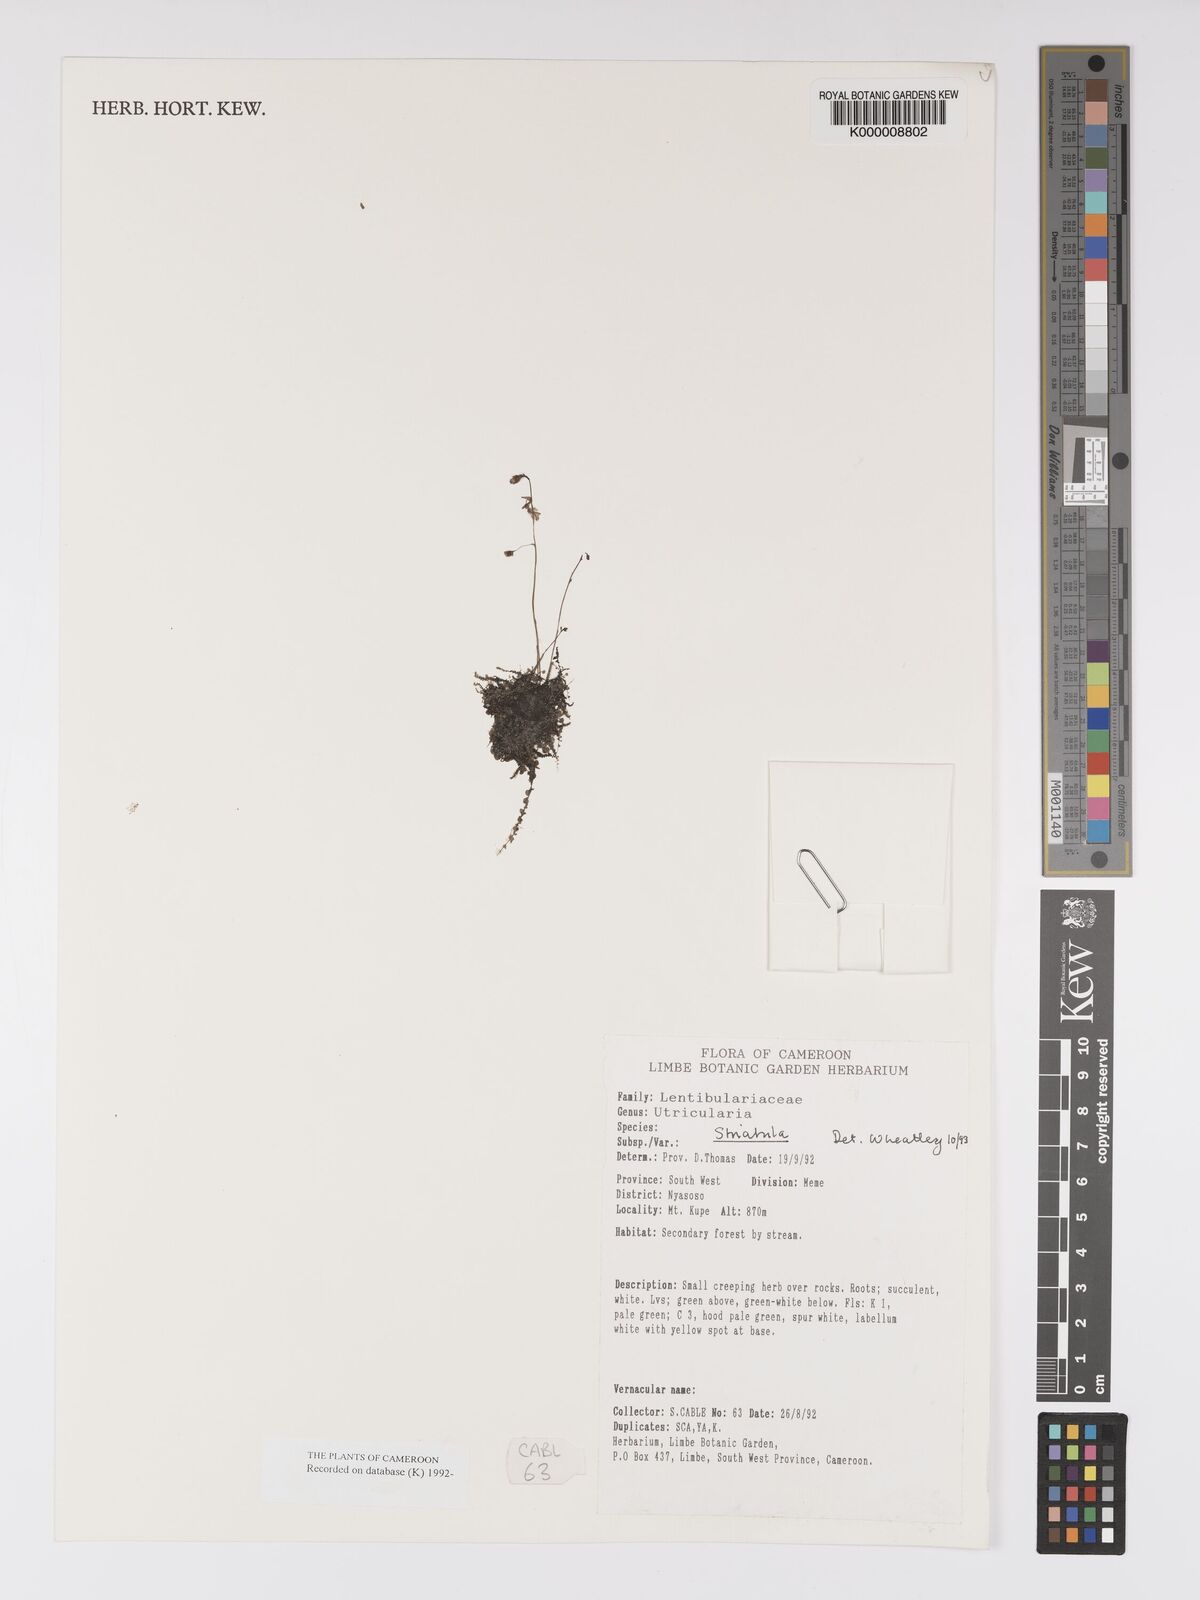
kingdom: Plantae
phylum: Tracheophyta
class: Magnoliopsida
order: Lamiales
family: Lentibulariaceae
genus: Utricularia
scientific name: Utricularia striatula
